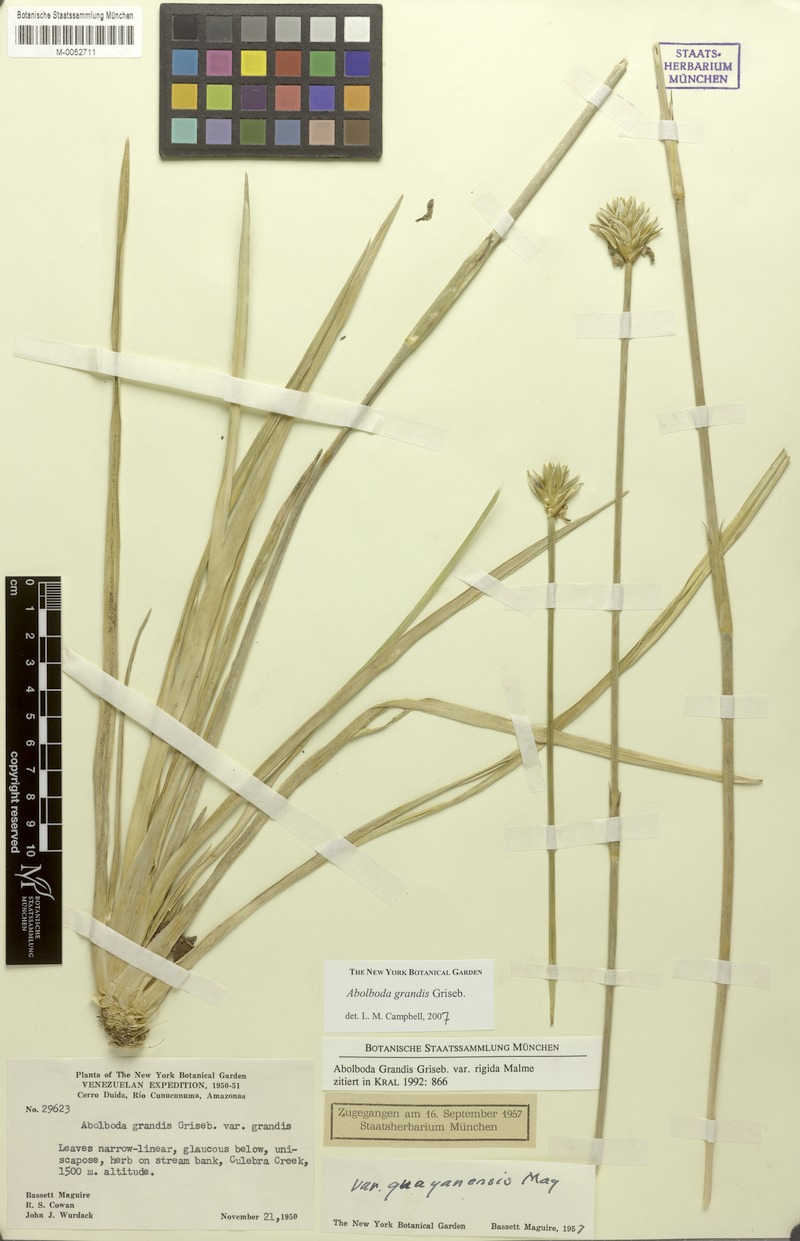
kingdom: Plantae
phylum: Tracheophyta
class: Liliopsida
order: Poales
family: Xyridaceae
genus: Abolboda
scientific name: Abolboda grandis
